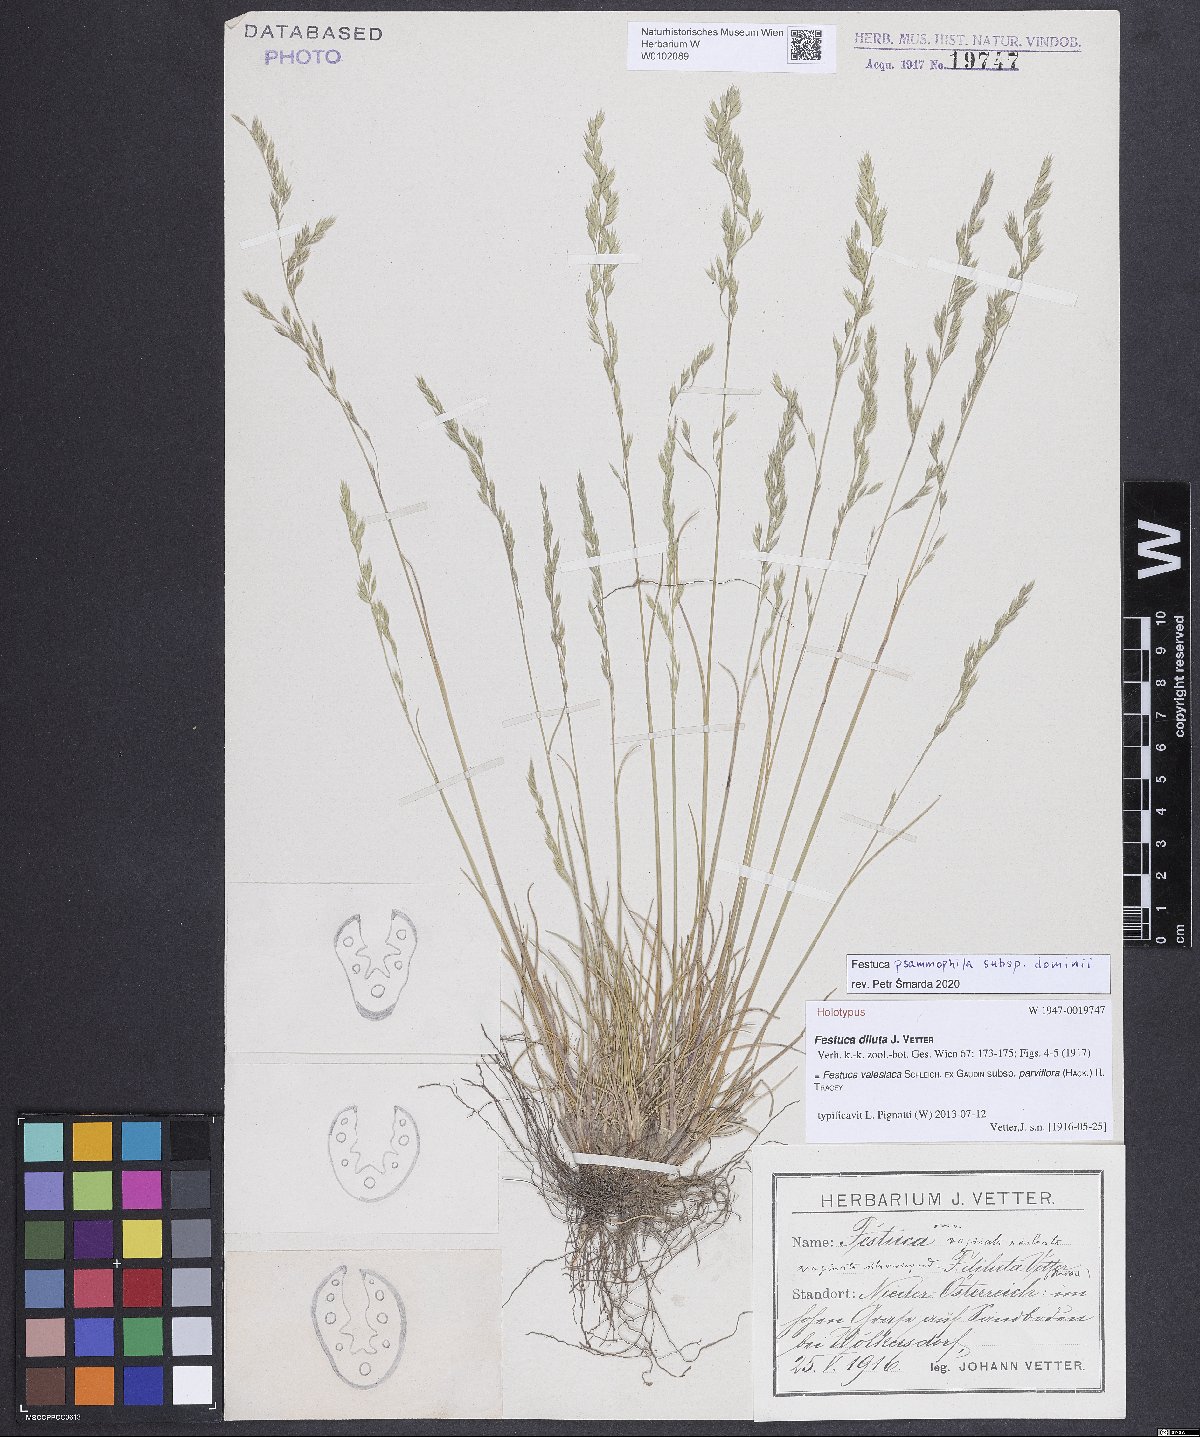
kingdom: Plantae
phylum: Tracheophyta
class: Liliopsida
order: Poales
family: Poaceae
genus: Festuca
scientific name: Festuca valesiaca
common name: Volga fescue
